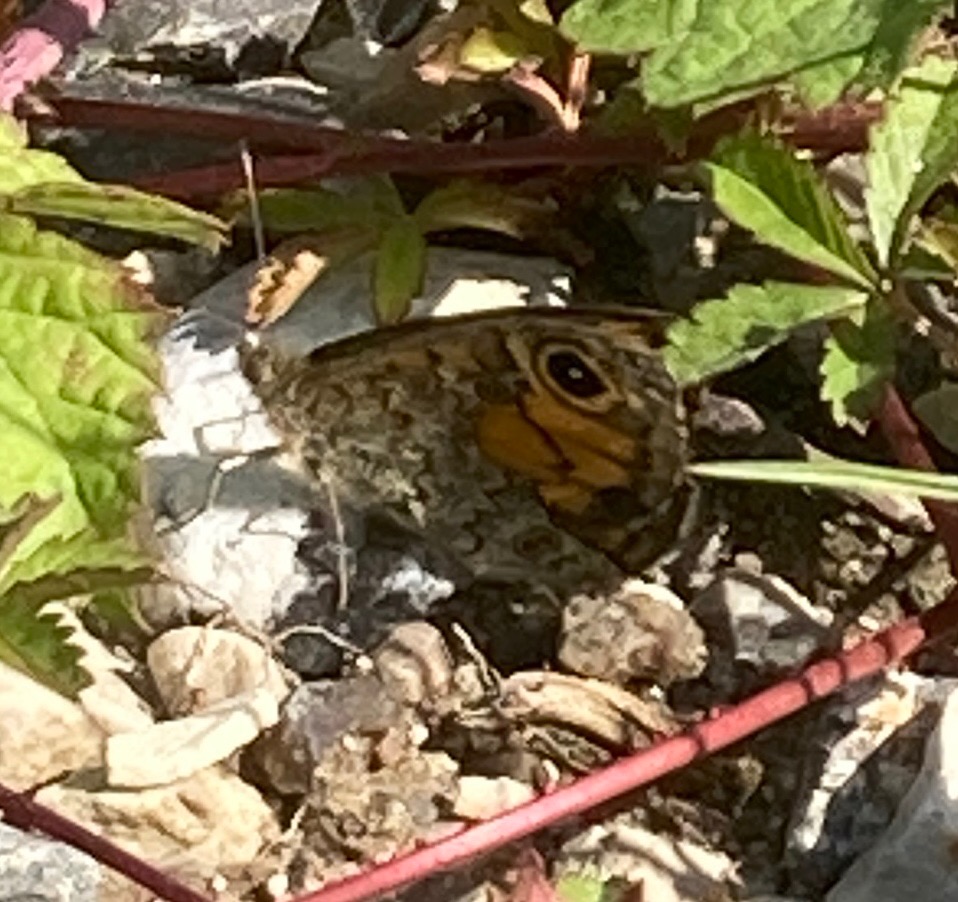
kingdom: Animalia
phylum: Arthropoda
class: Insecta
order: Lepidoptera
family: Nymphalidae
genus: Pararge
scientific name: Pararge Lasiommata megera
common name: Vejrandøje
